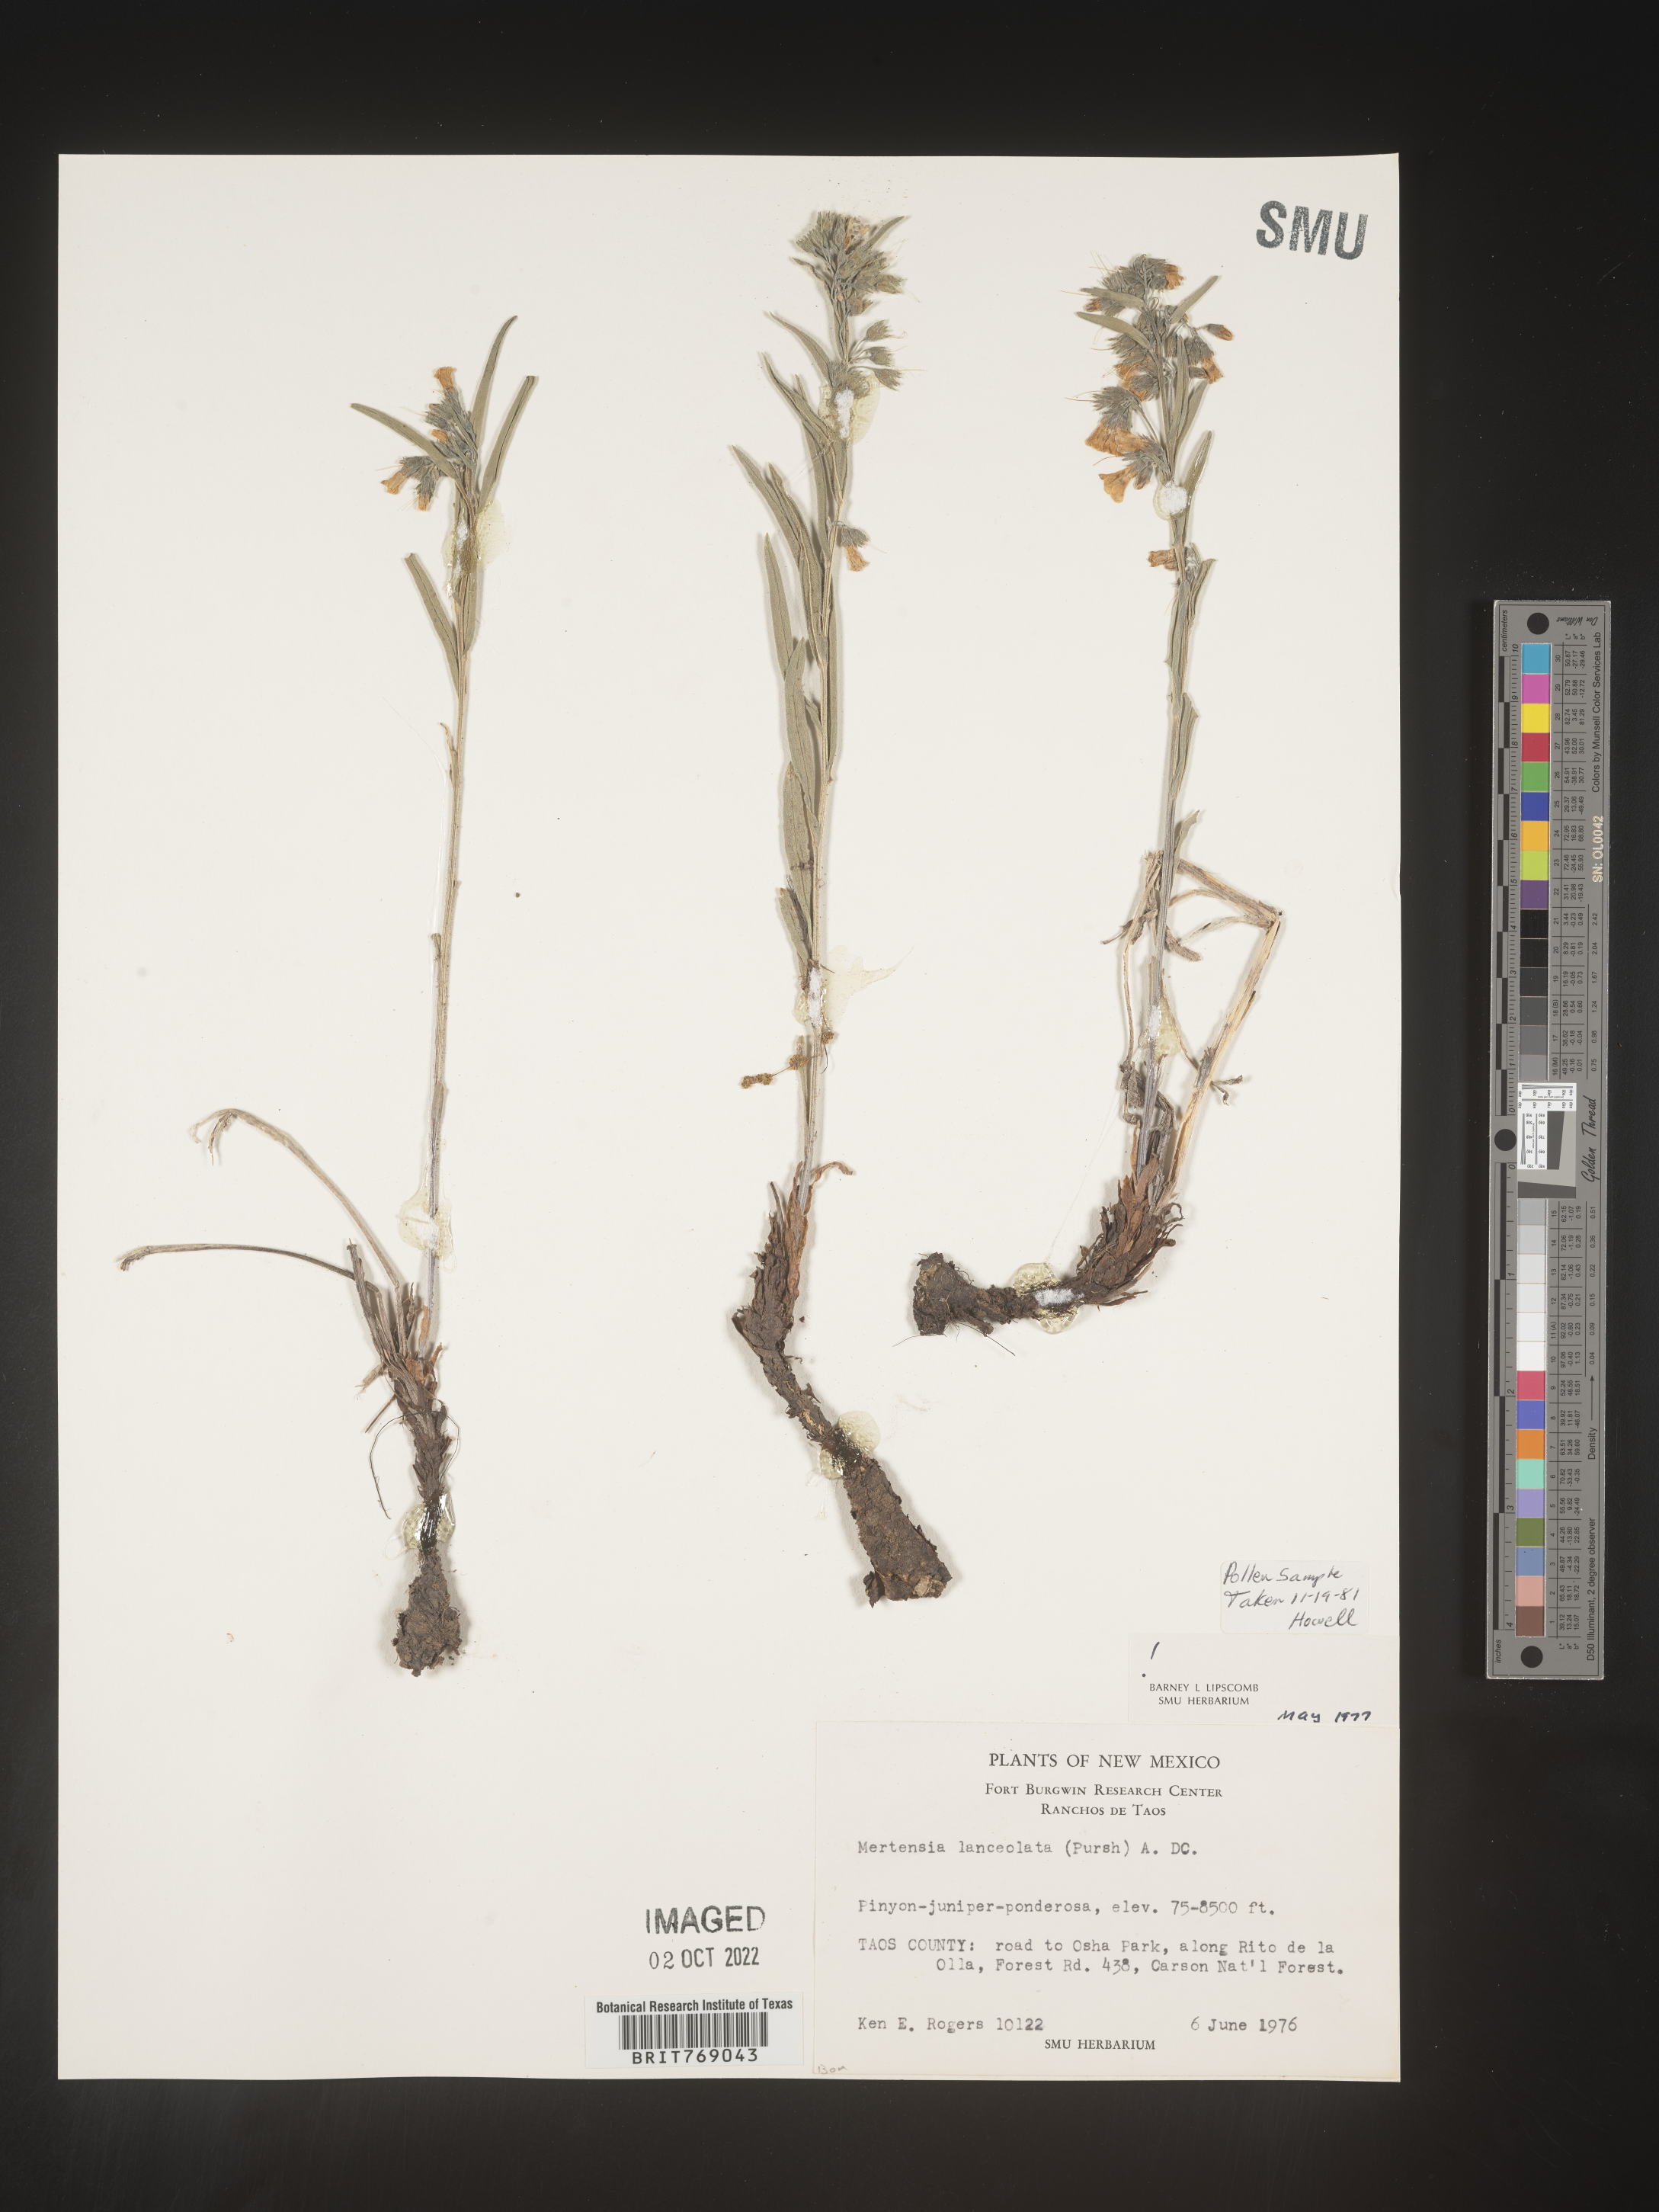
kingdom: Plantae
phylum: Tracheophyta
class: Magnoliopsida
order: Boraginales
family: Boraginaceae
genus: Mertensia
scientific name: Mertensia
